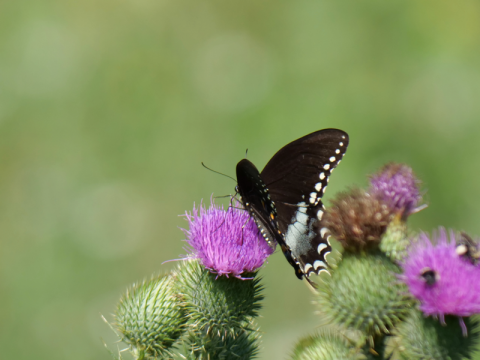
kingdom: Animalia
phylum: Arthropoda
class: Insecta
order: Lepidoptera
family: Papilionidae
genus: Pterourus
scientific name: Pterourus troilus
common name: Spicebush Swallowtail
